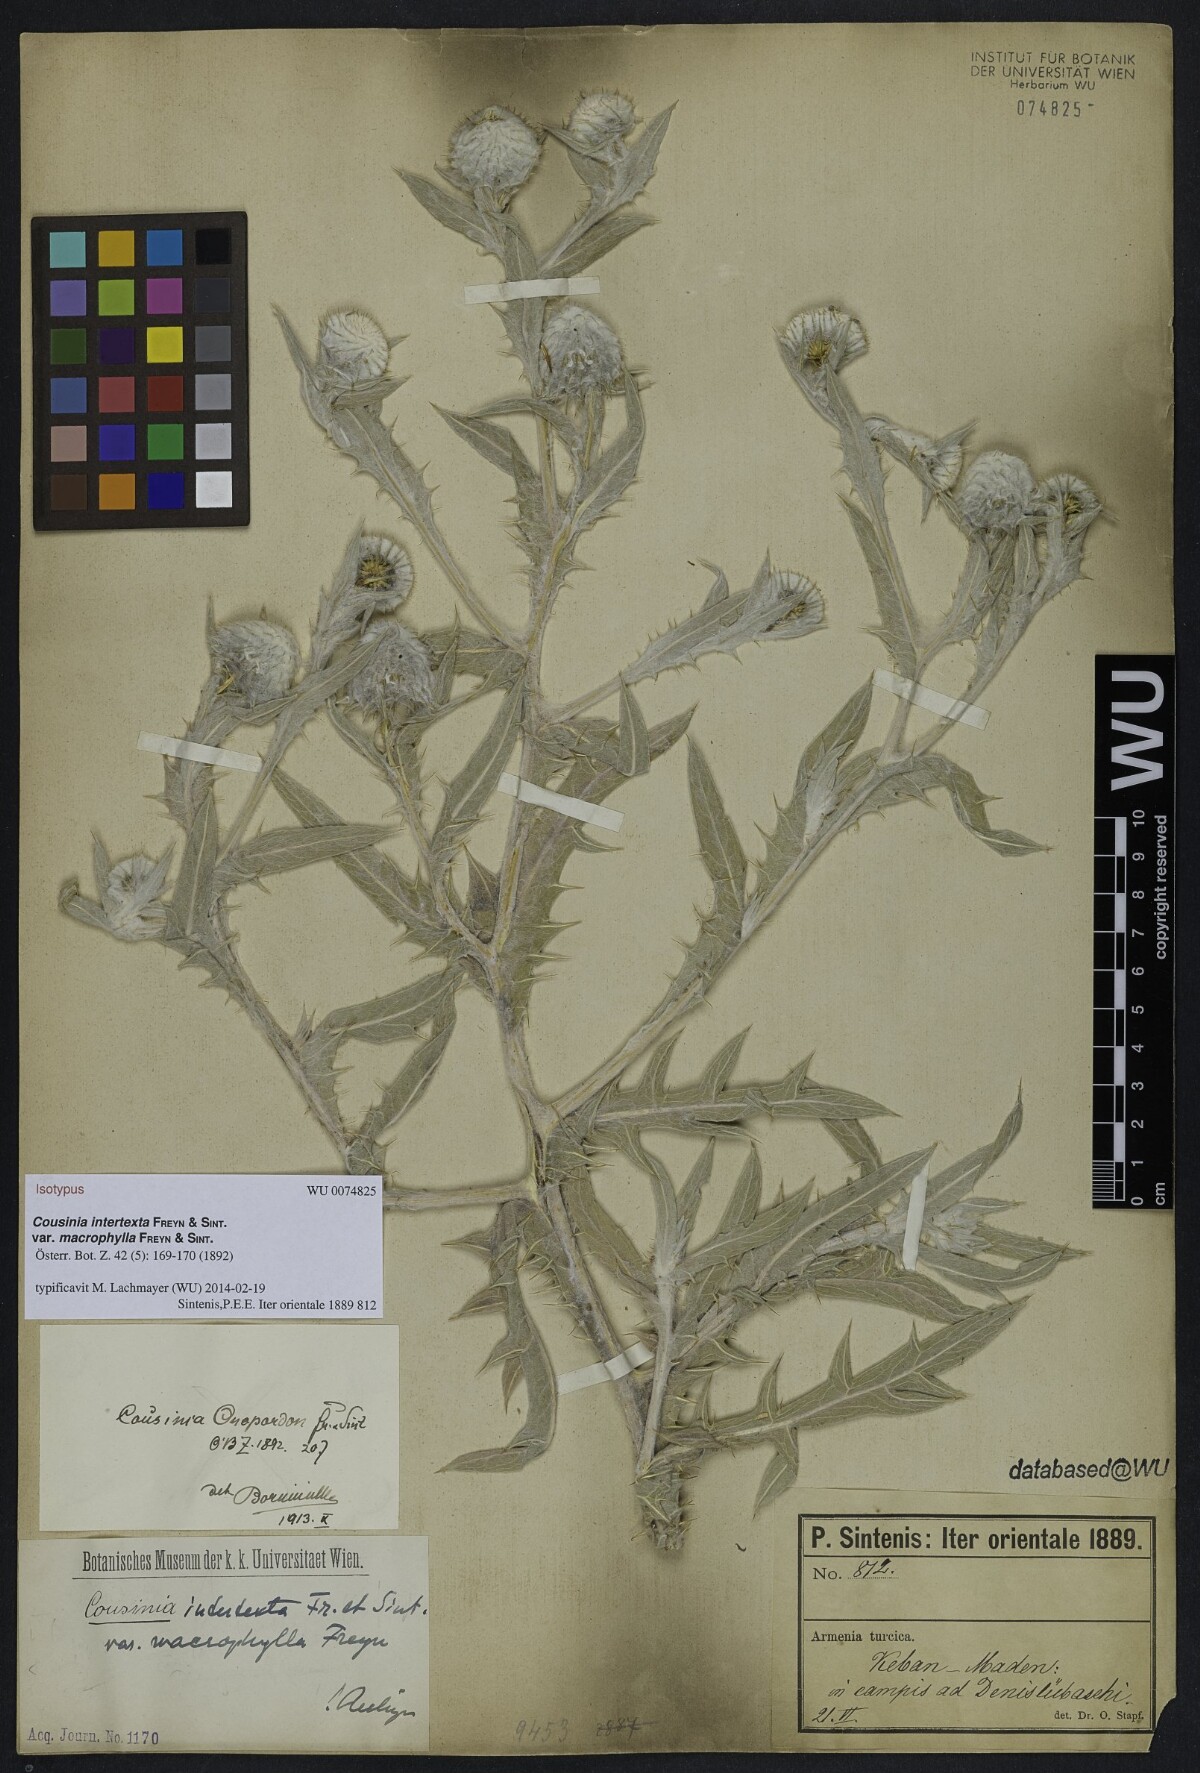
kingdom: Plantae
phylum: Tracheophyta
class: Magnoliopsida
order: Asterales
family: Asteraceae
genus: Cousinia
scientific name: Cousinia intertexta
